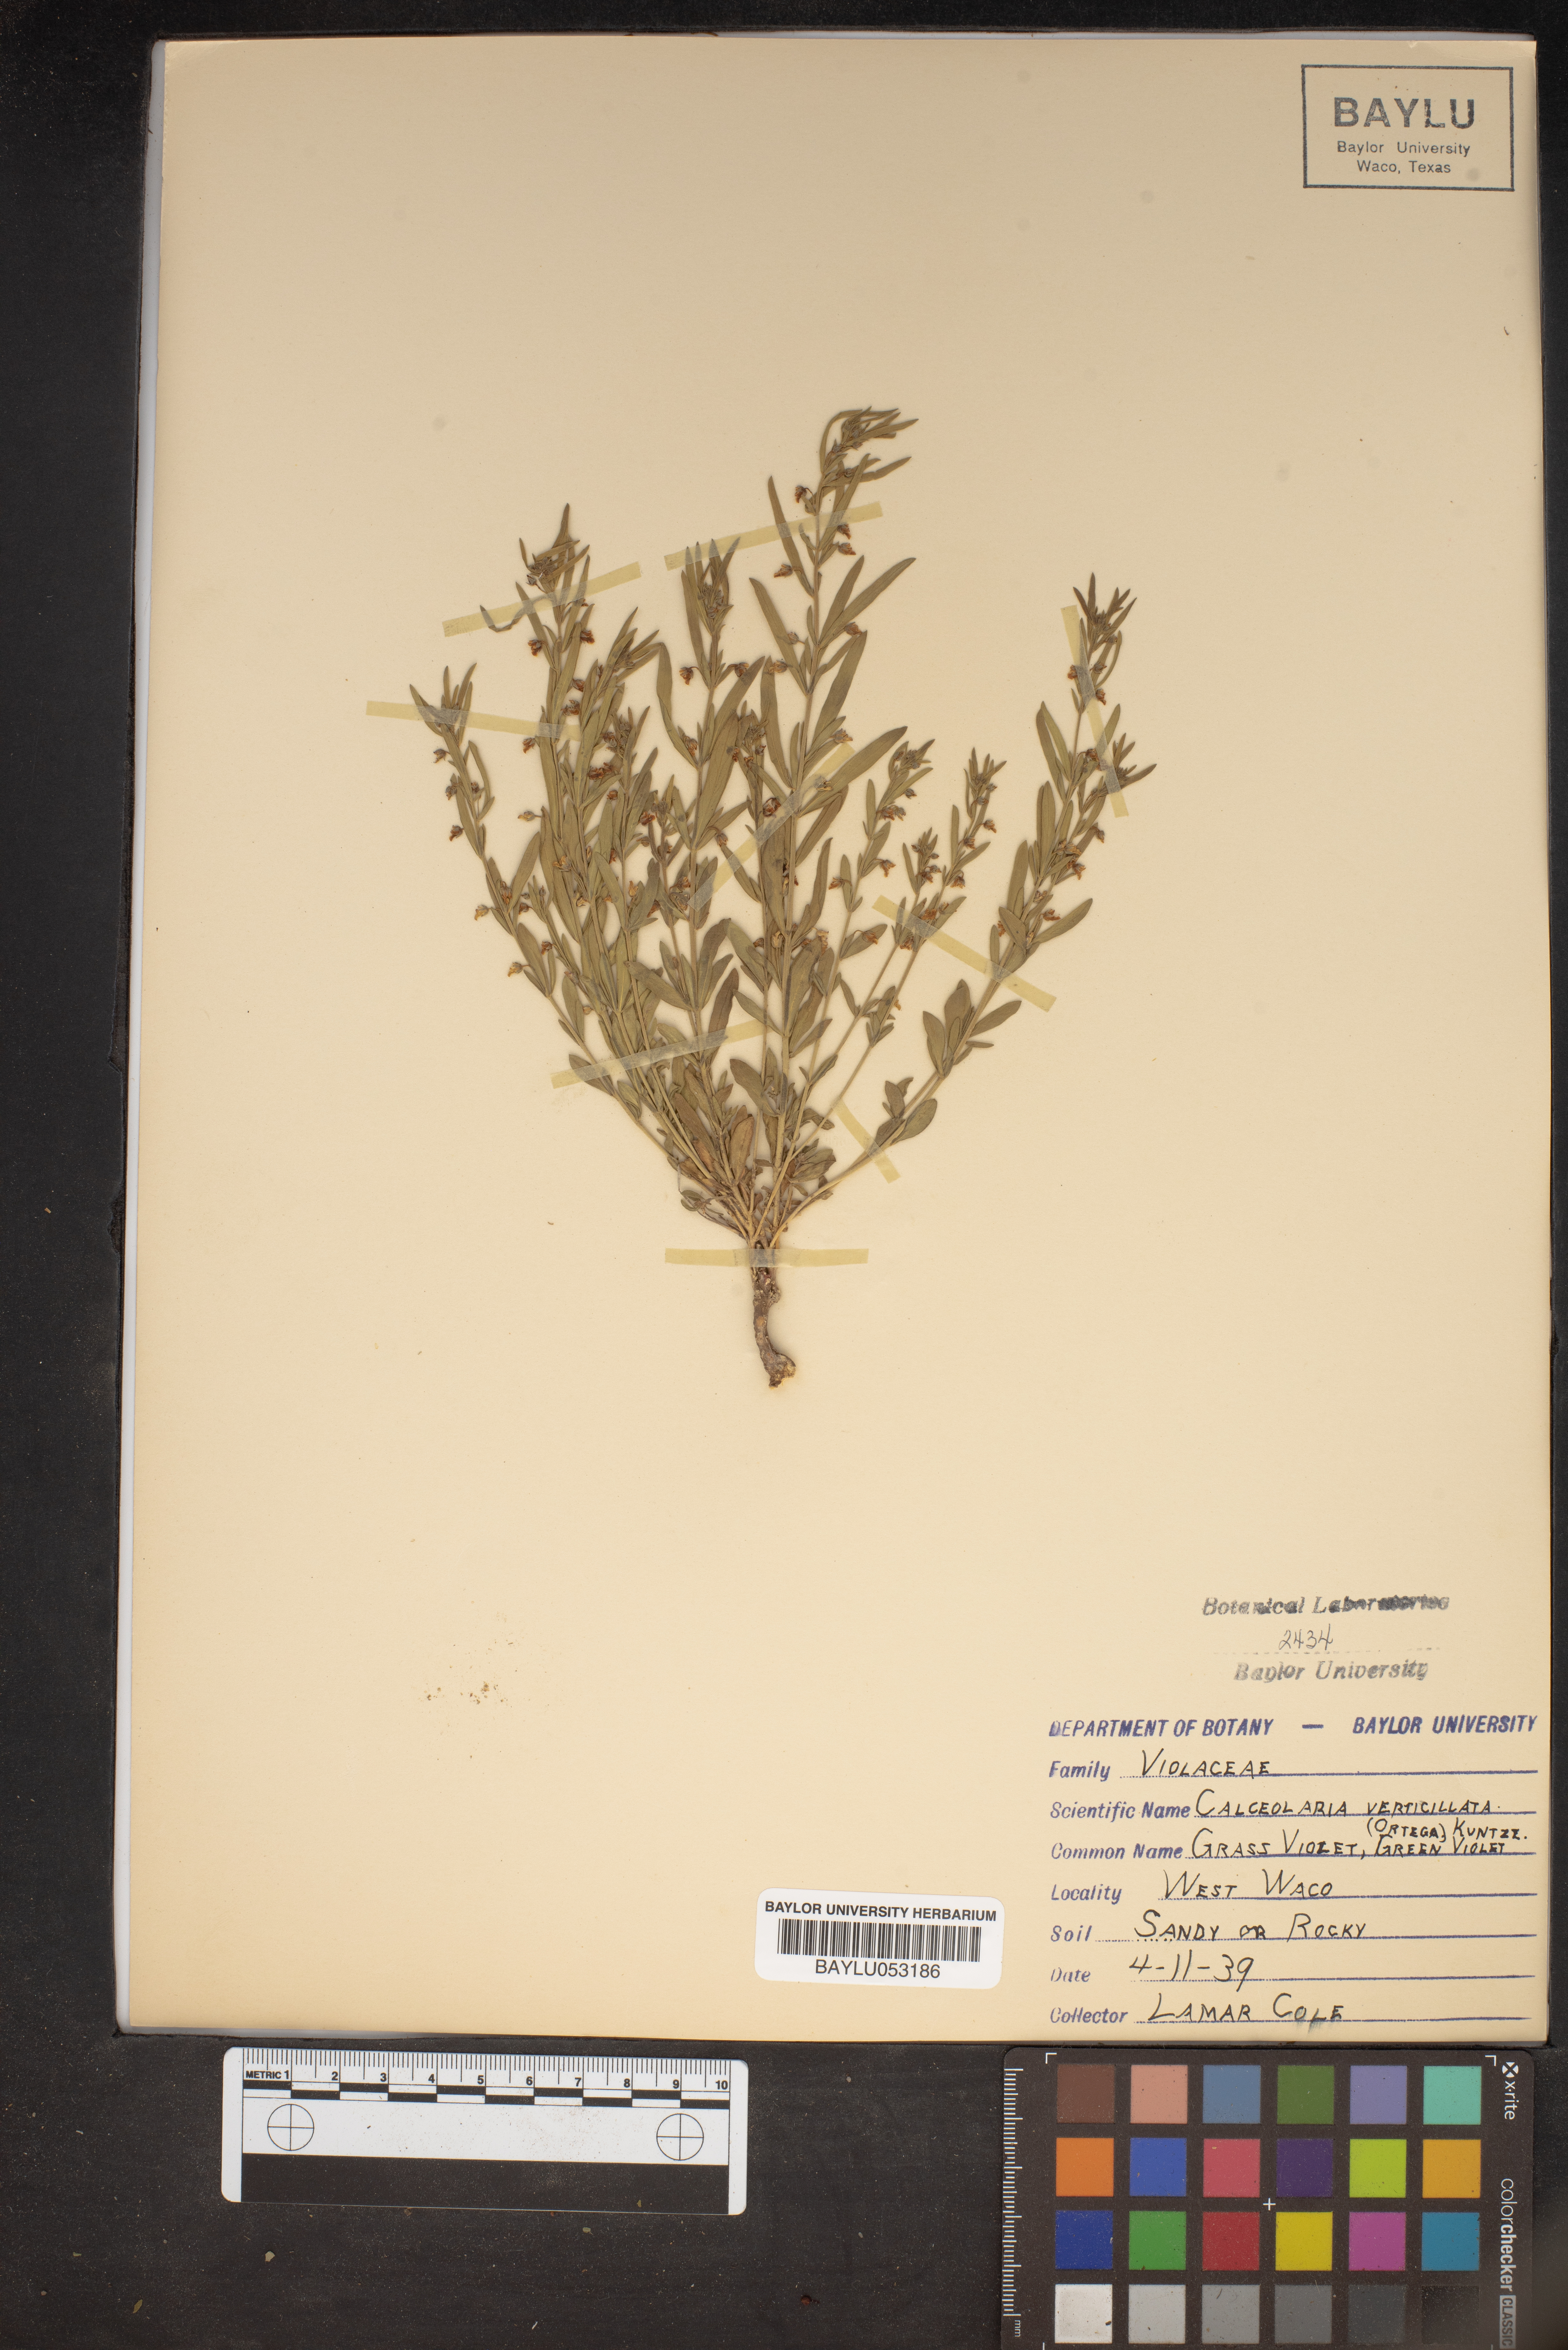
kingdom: Plantae
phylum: Tracheophyta
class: Magnoliopsida
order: Malpighiales
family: Violaceae
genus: Pombalia
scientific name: Pombalia verticillata
